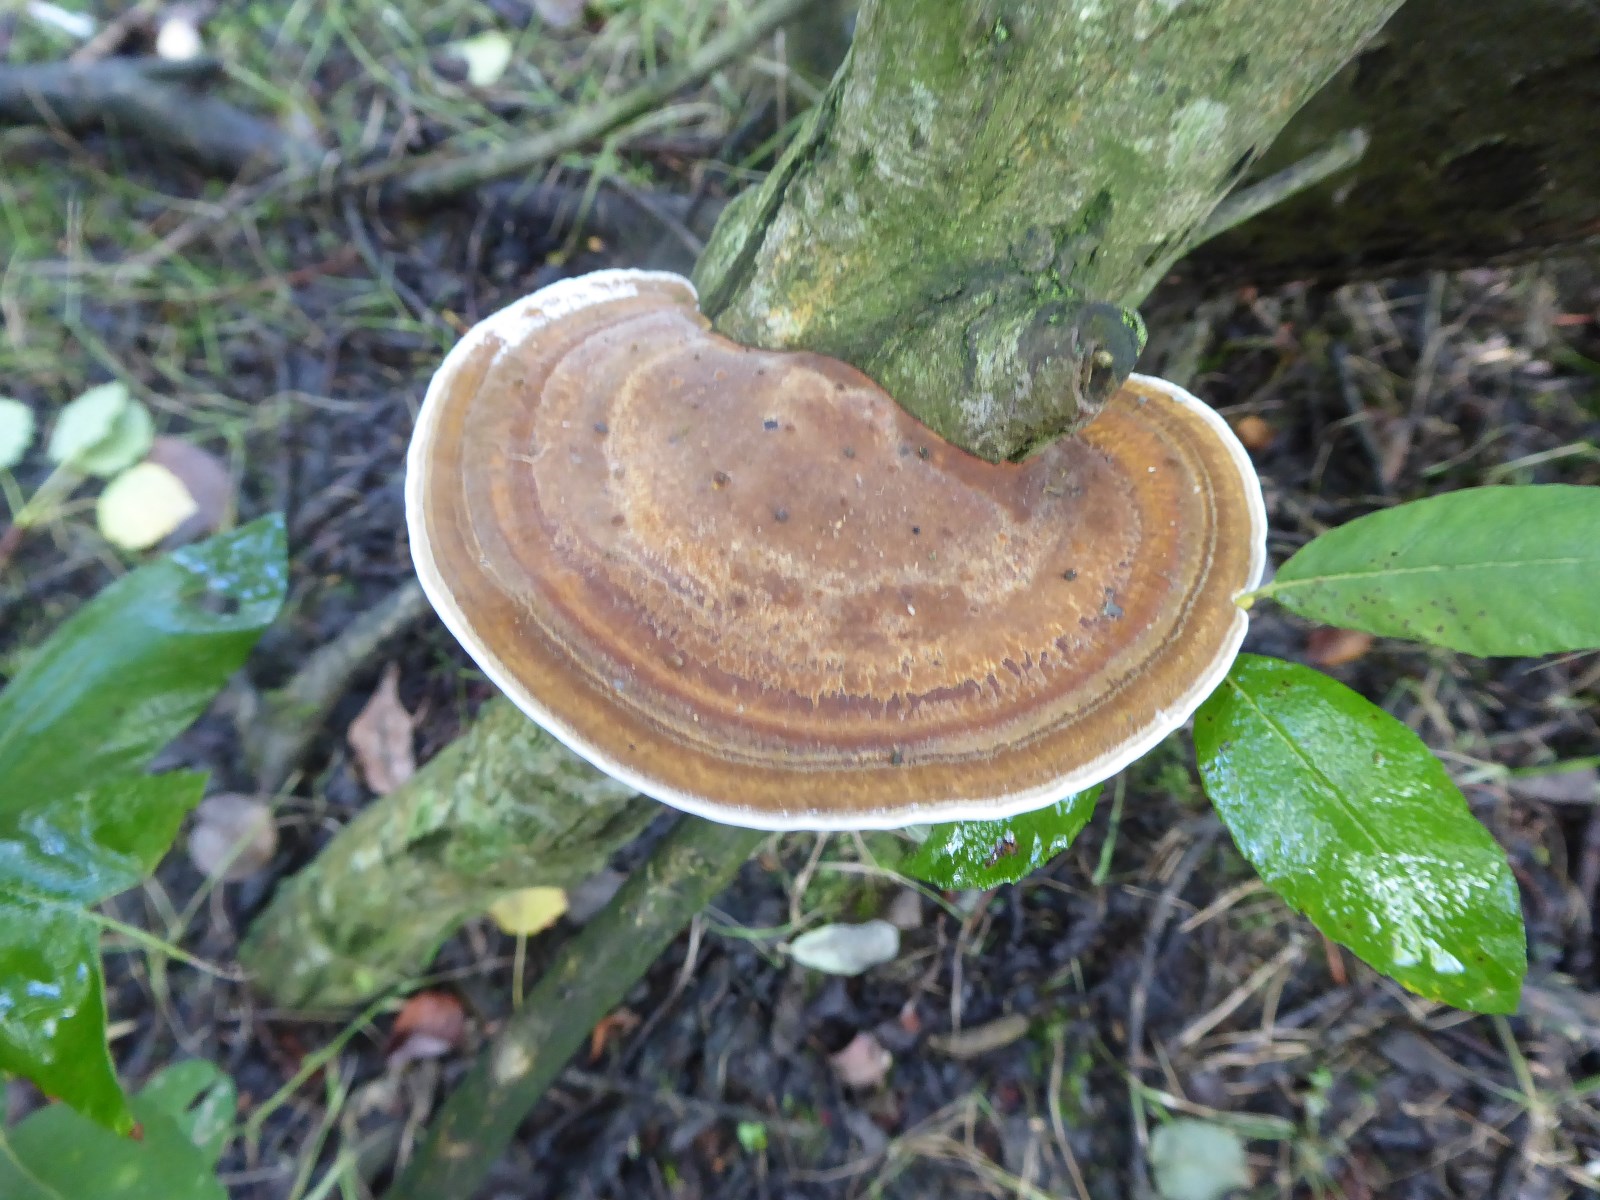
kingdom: Fungi
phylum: Basidiomycota
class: Agaricomycetes
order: Polyporales
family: Polyporaceae
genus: Daedaleopsis
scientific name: Daedaleopsis confragosa
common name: rødmende læderporesvamp
